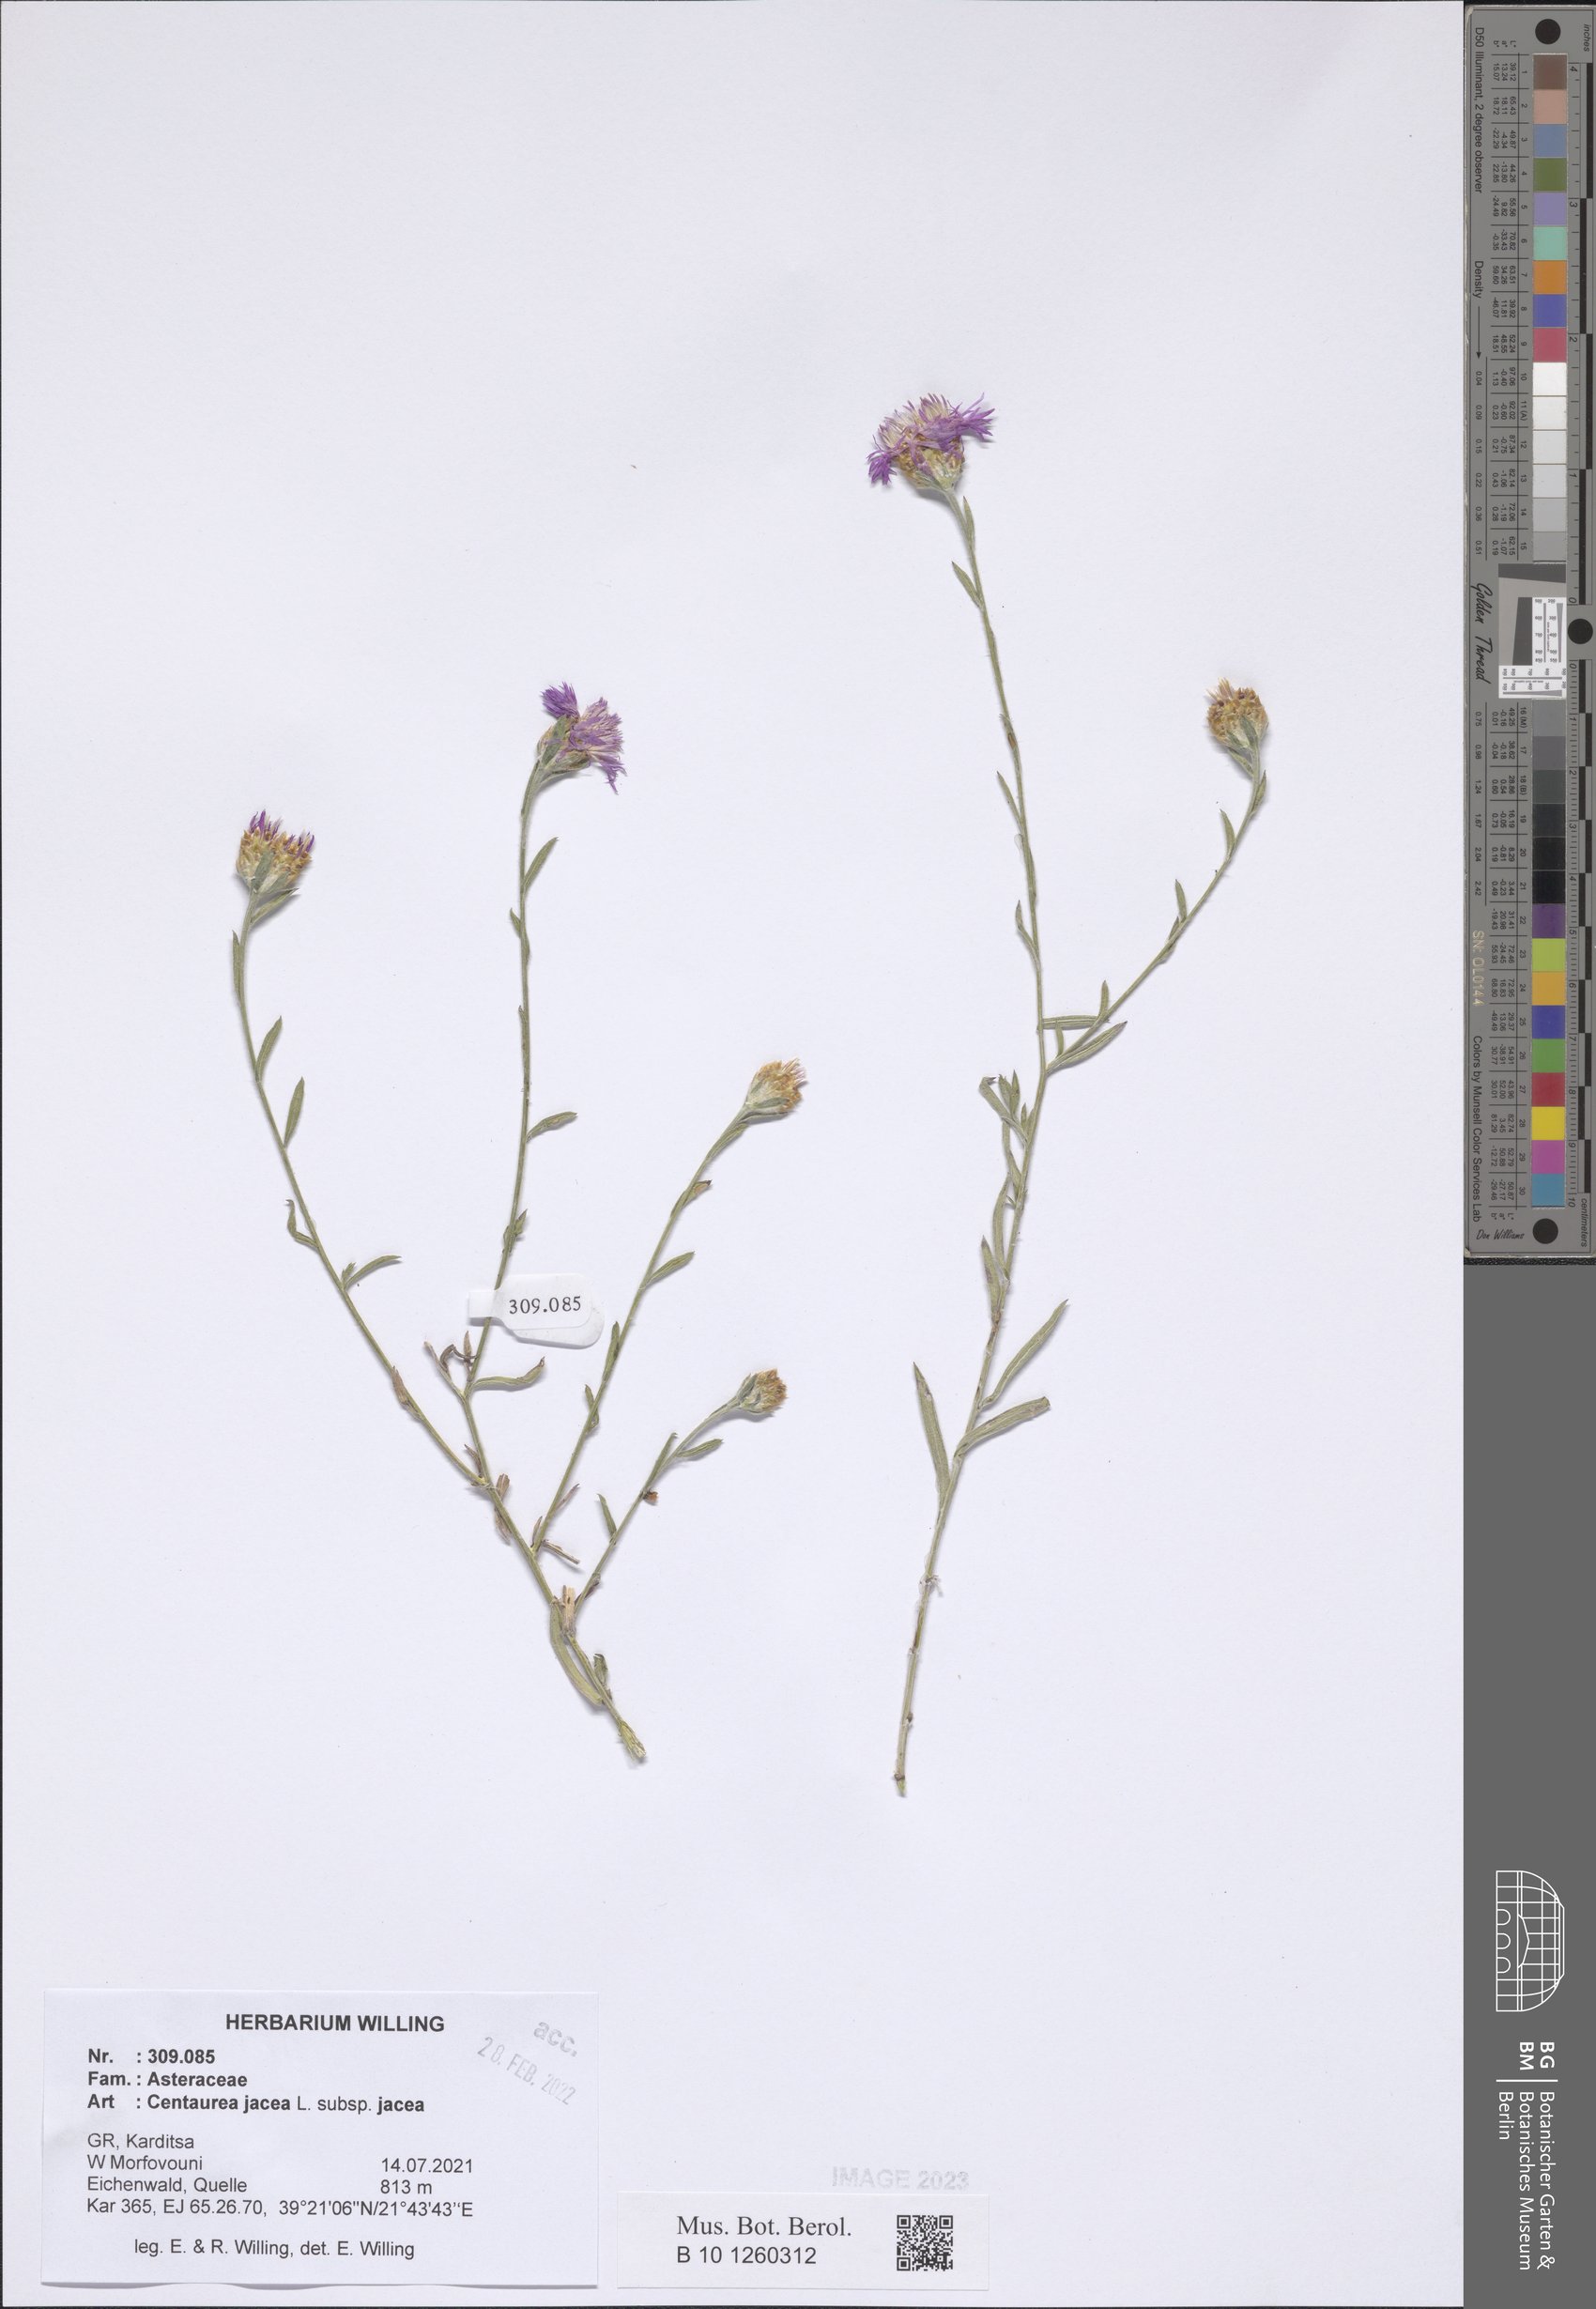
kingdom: Plantae
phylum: Tracheophyta
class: Magnoliopsida
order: Asterales
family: Asteraceae
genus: Centaurea
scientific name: Centaurea jacea
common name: Brown knapweed
